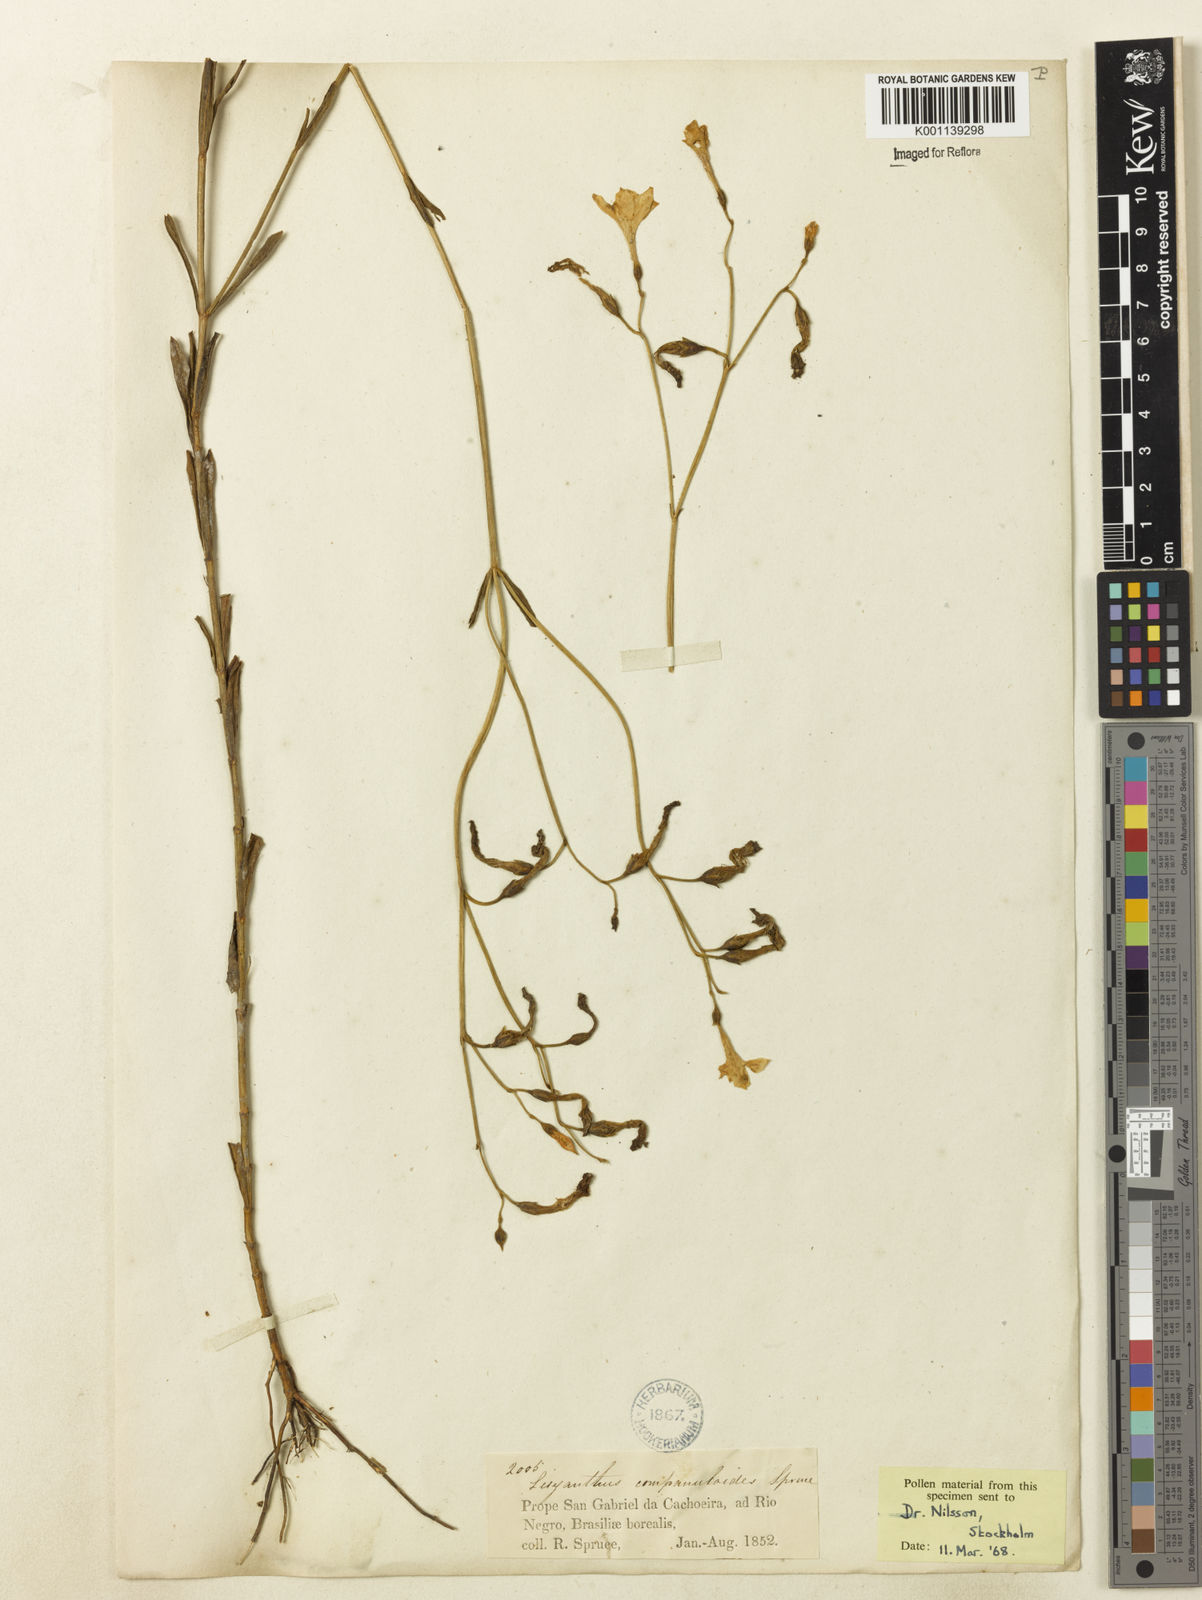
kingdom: Plantae
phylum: Tracheophyta
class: Magnoliopsida
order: Gentianales
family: Gentianaceae
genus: Irlbachia
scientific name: Irlbachia poeppigii
